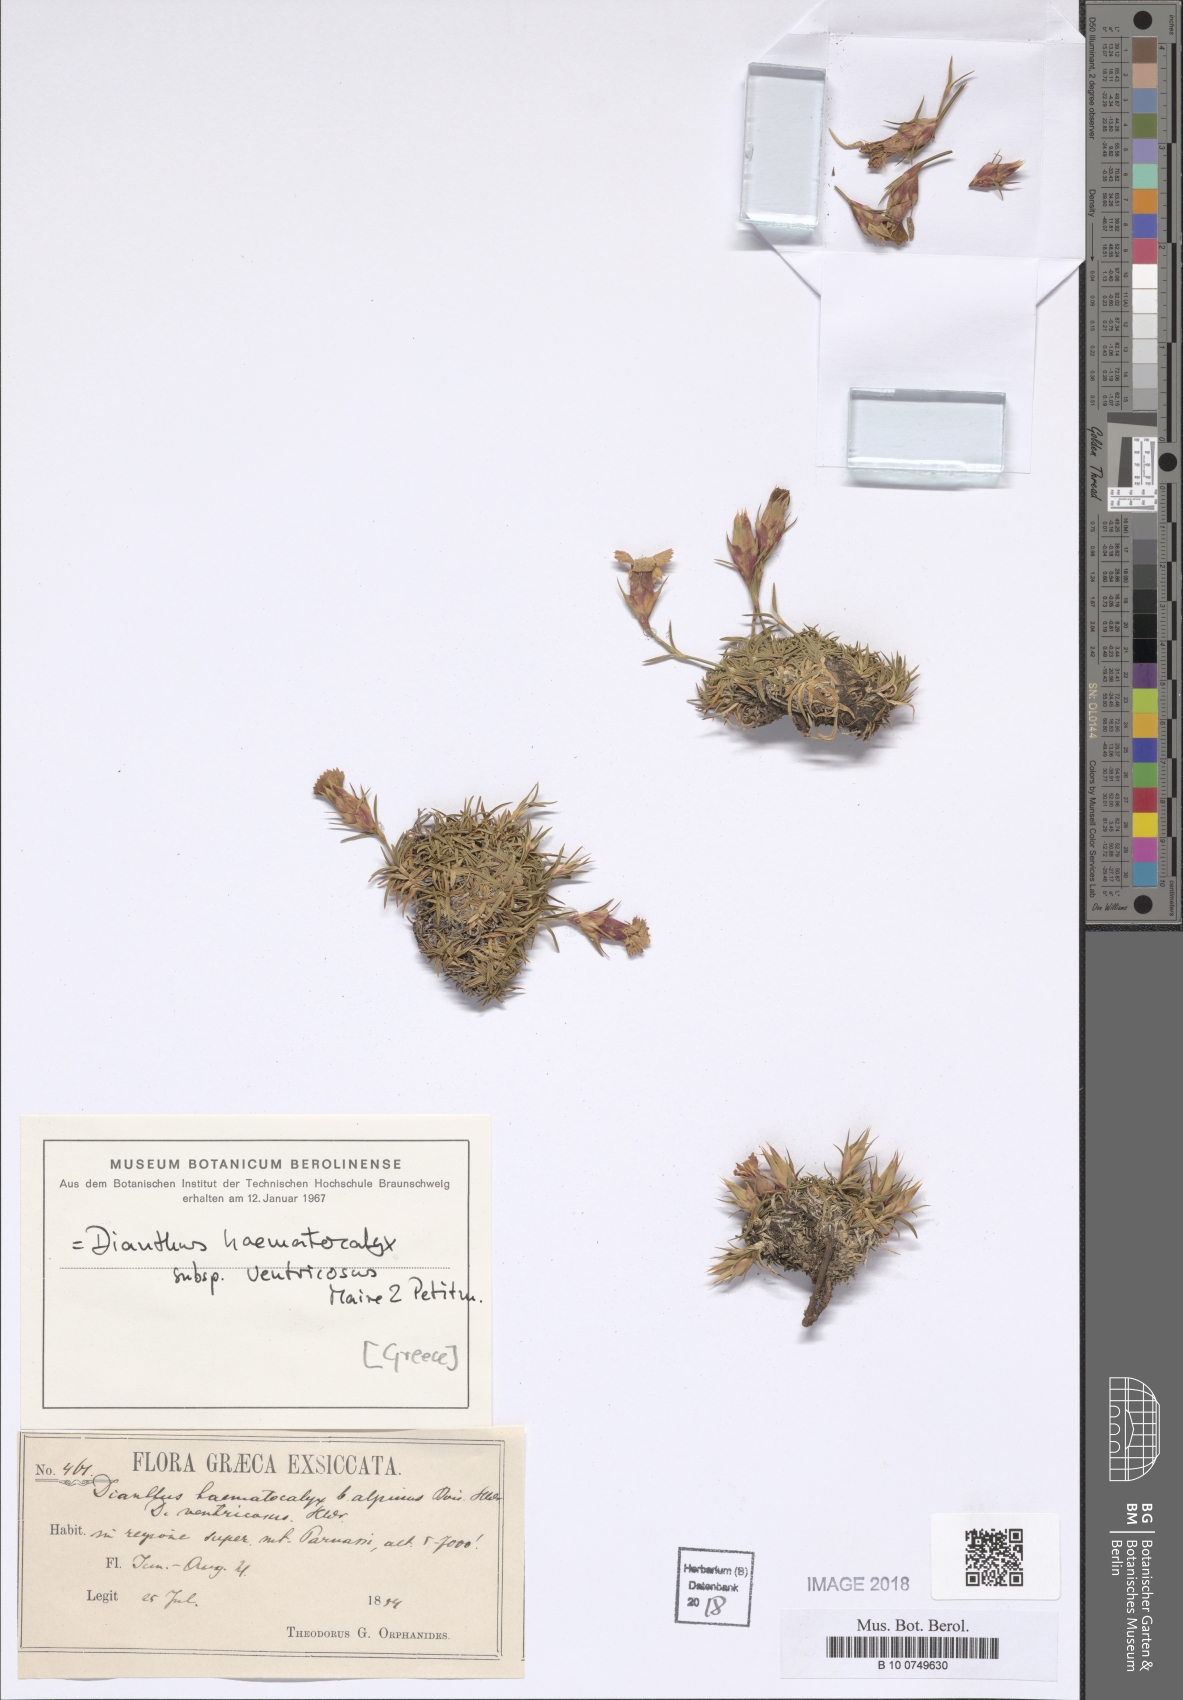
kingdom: Plantae
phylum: Tracheophyta
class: Magnoliopsida
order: Caryophyllales
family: Caryophyllaceae
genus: Dianthus
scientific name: Dianthus haematocalyx
